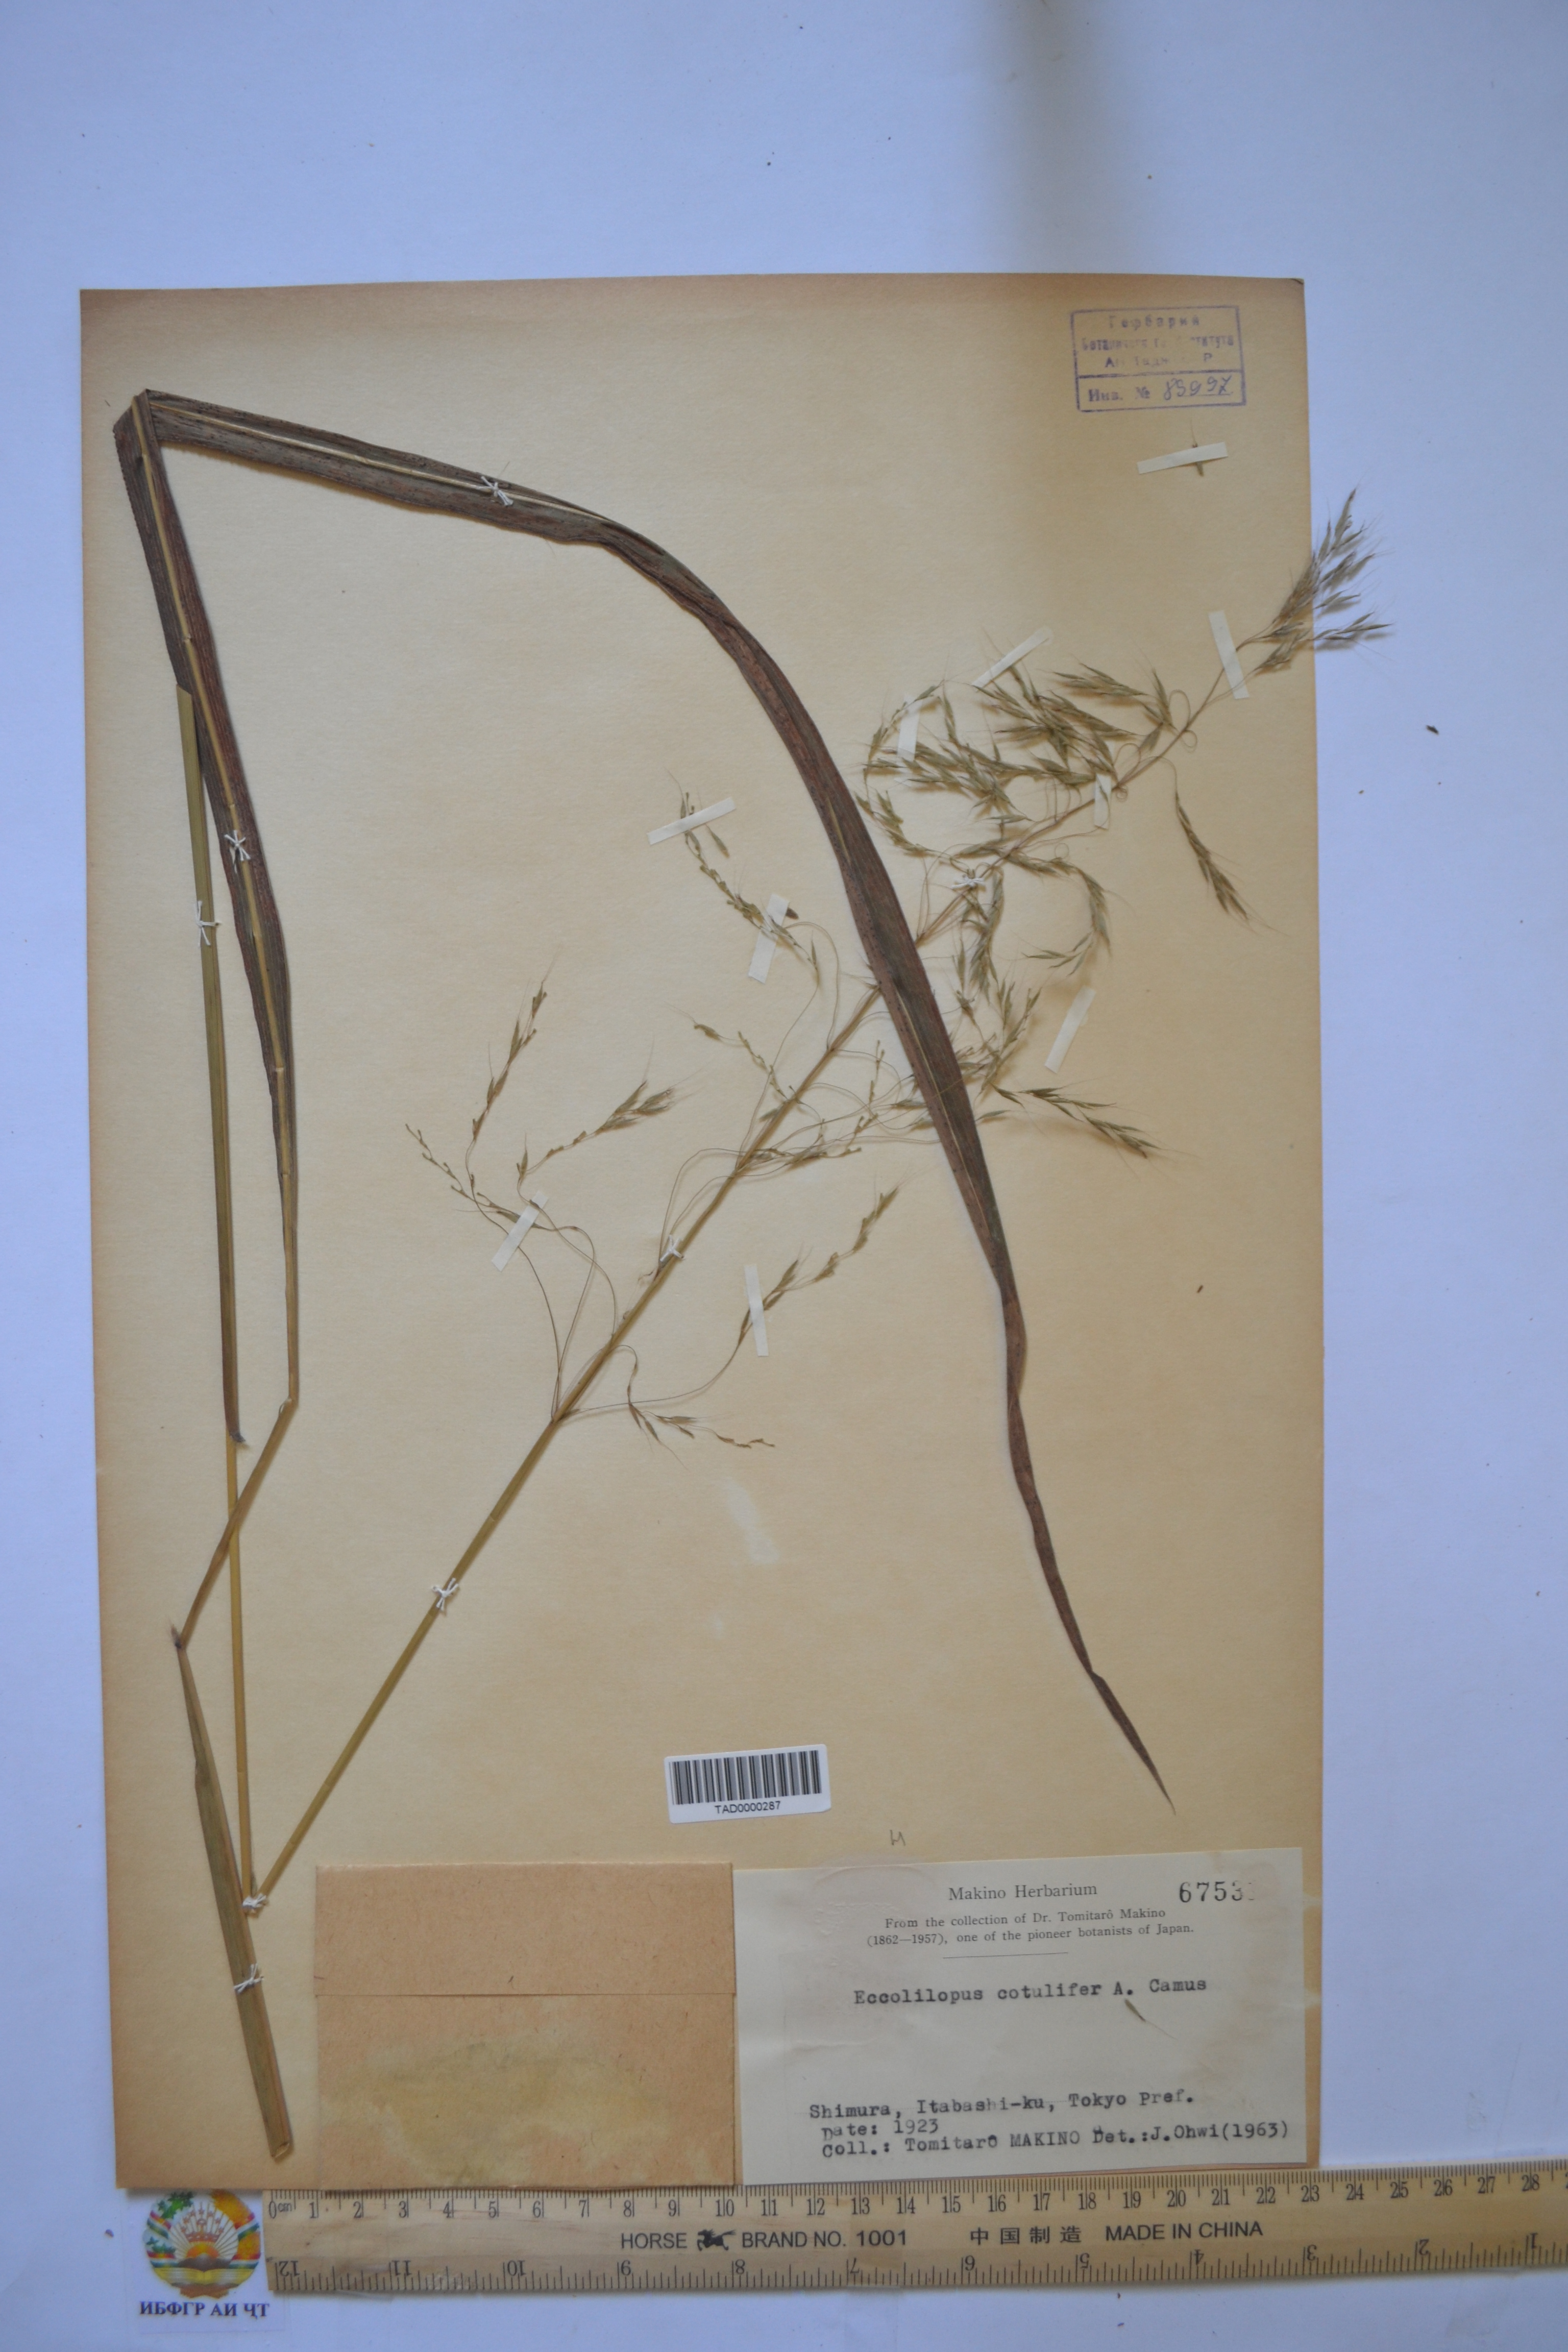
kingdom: Plantae
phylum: Tracheophyta
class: Liliopsida
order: Poales
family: Poaceae
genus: Spodiopogon
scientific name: Spodiopogon cotulifer
